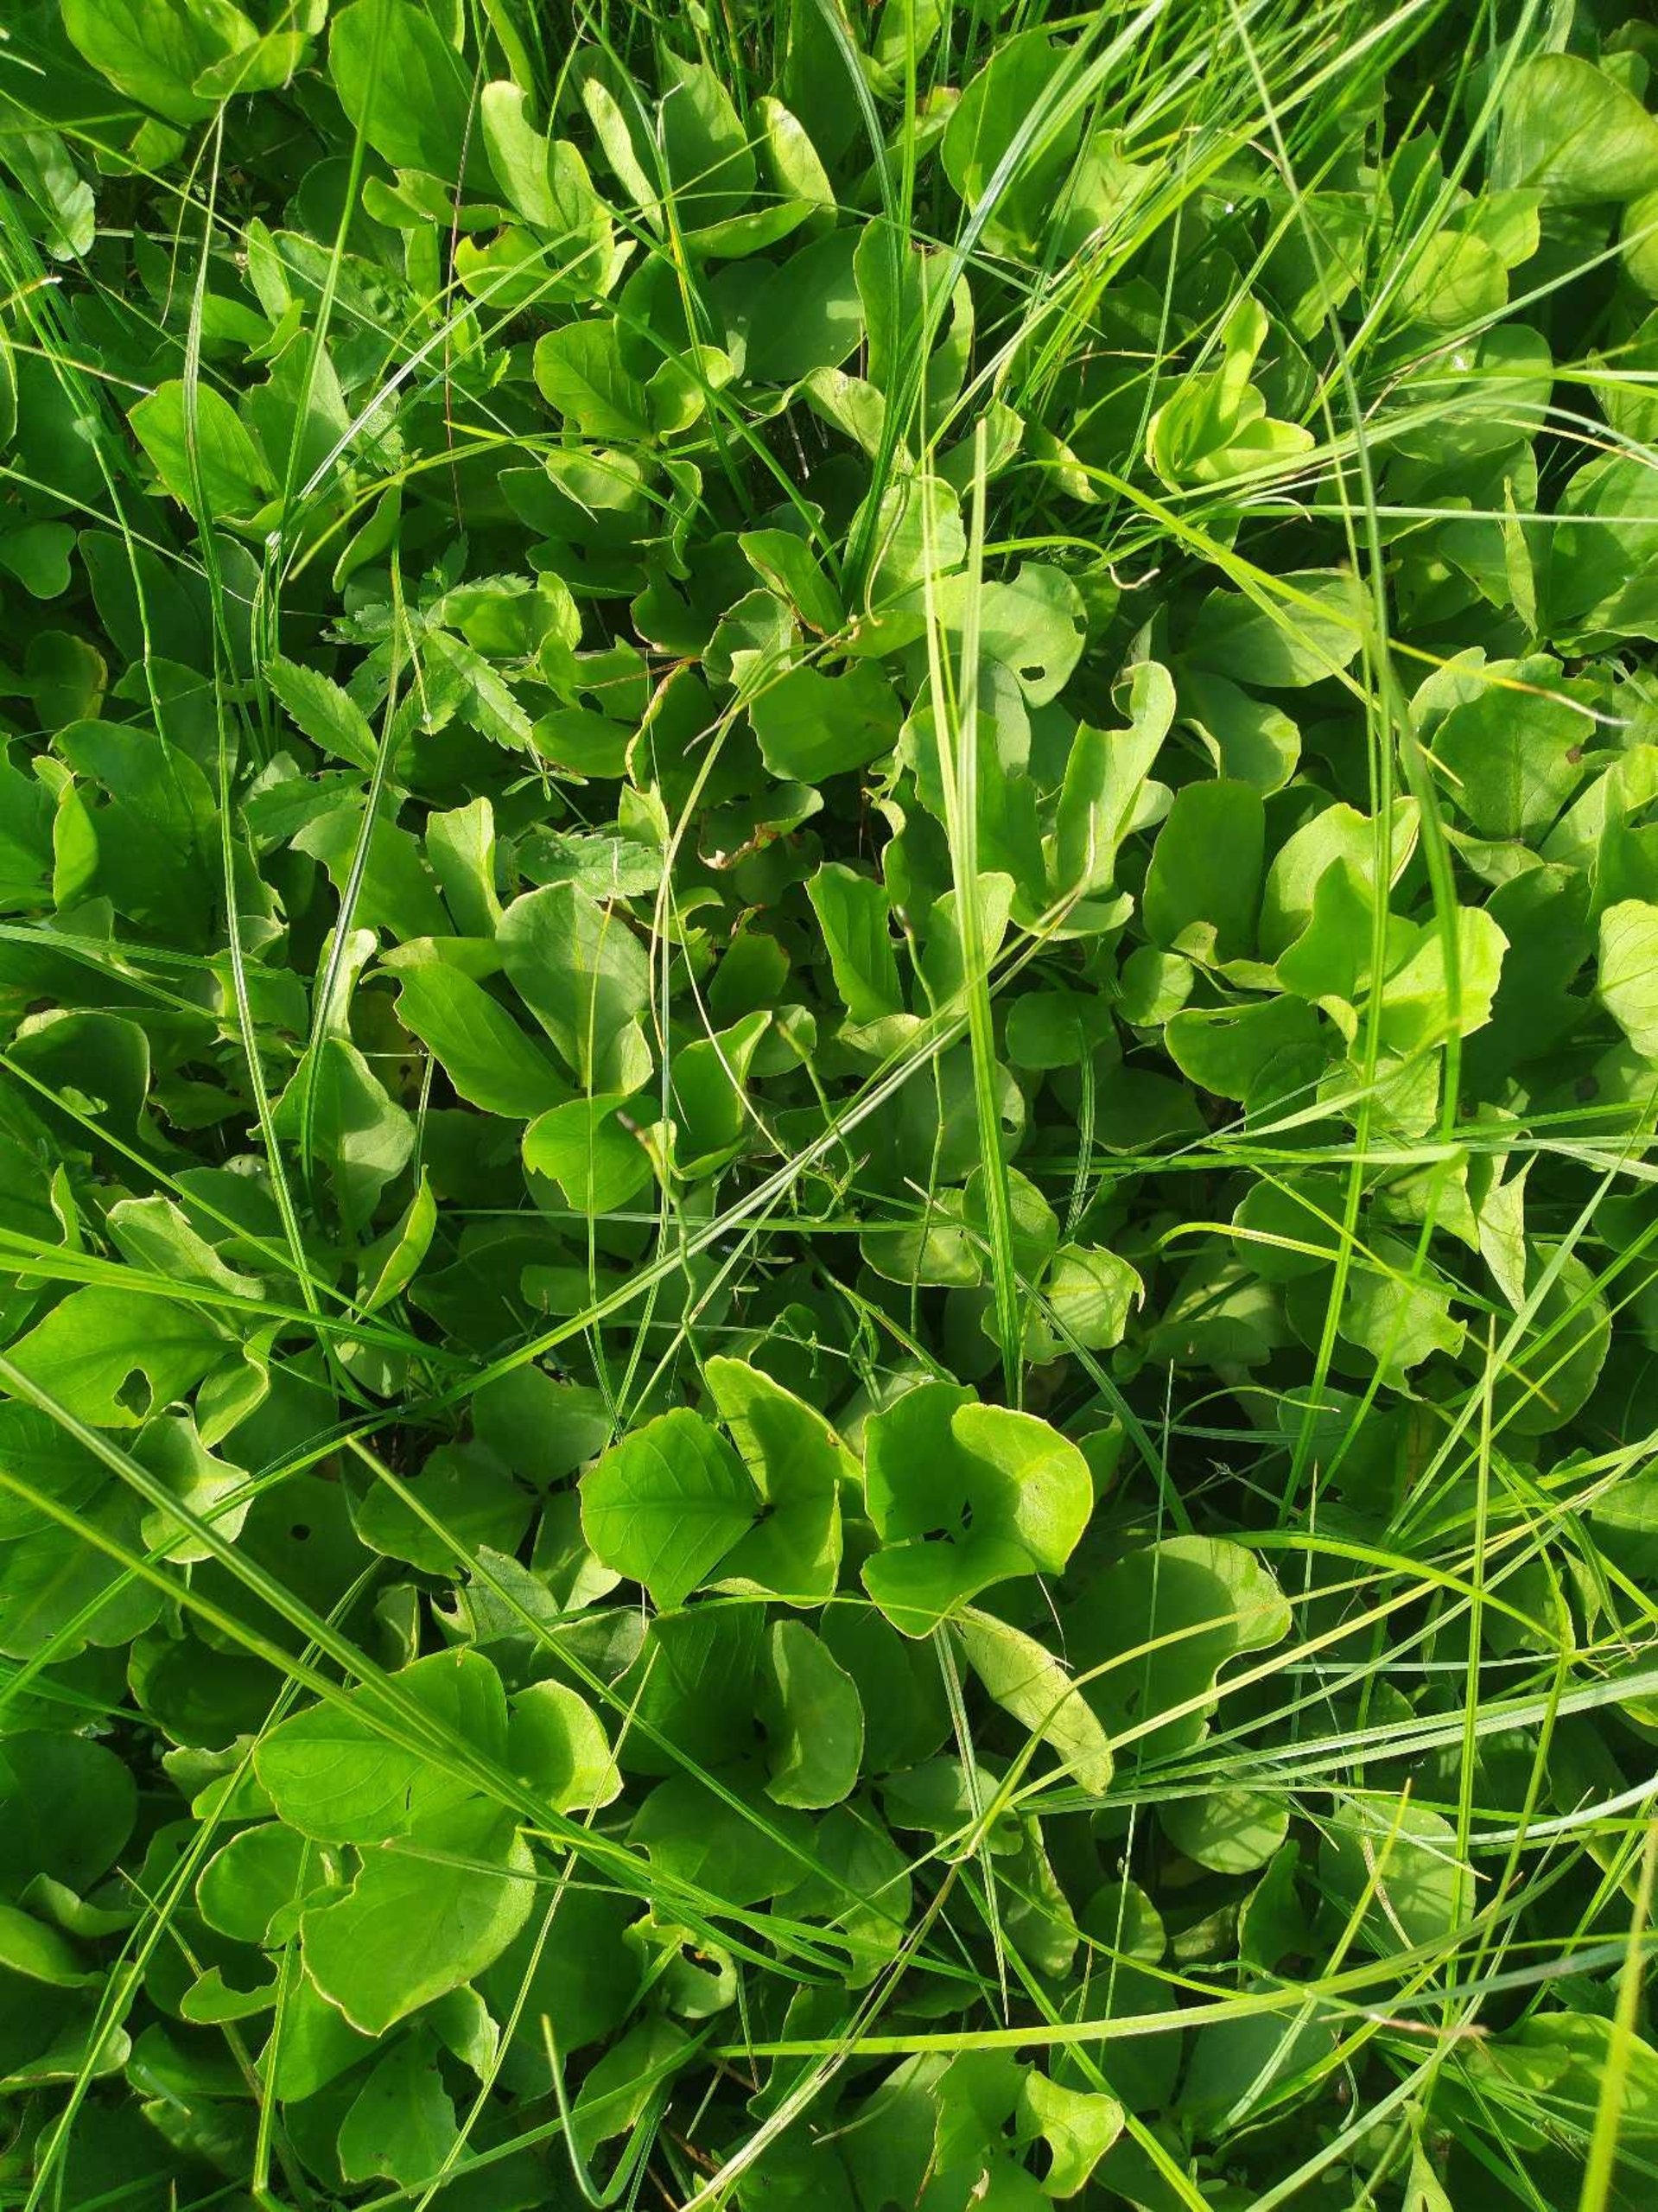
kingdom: Plantae
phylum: Tracheophyta
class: Magnoliopsida
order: Asterales
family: Menyanthaceae
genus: Menyanthes
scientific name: Menyanthes trifoliata
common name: Bukkeblad
